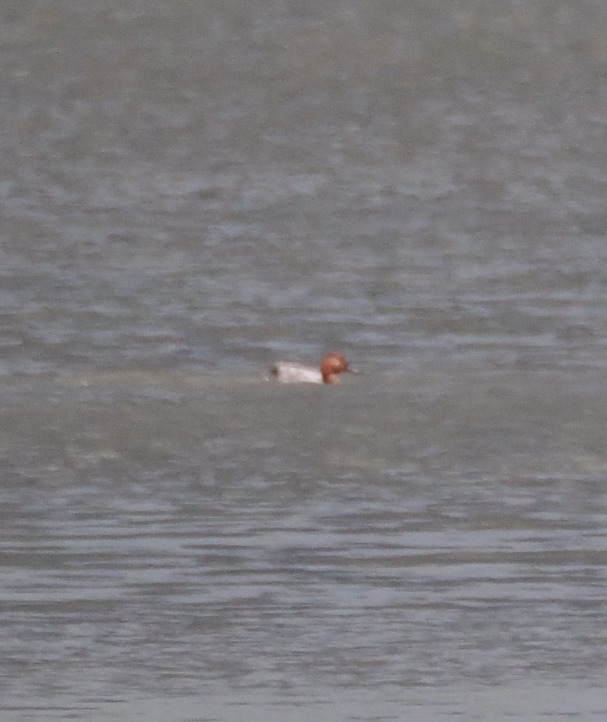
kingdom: Animalia
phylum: Chordata
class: Aves
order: Anseriformes
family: Anatidae
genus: Aythya
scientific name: Aythya ferina
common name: Taffeland
